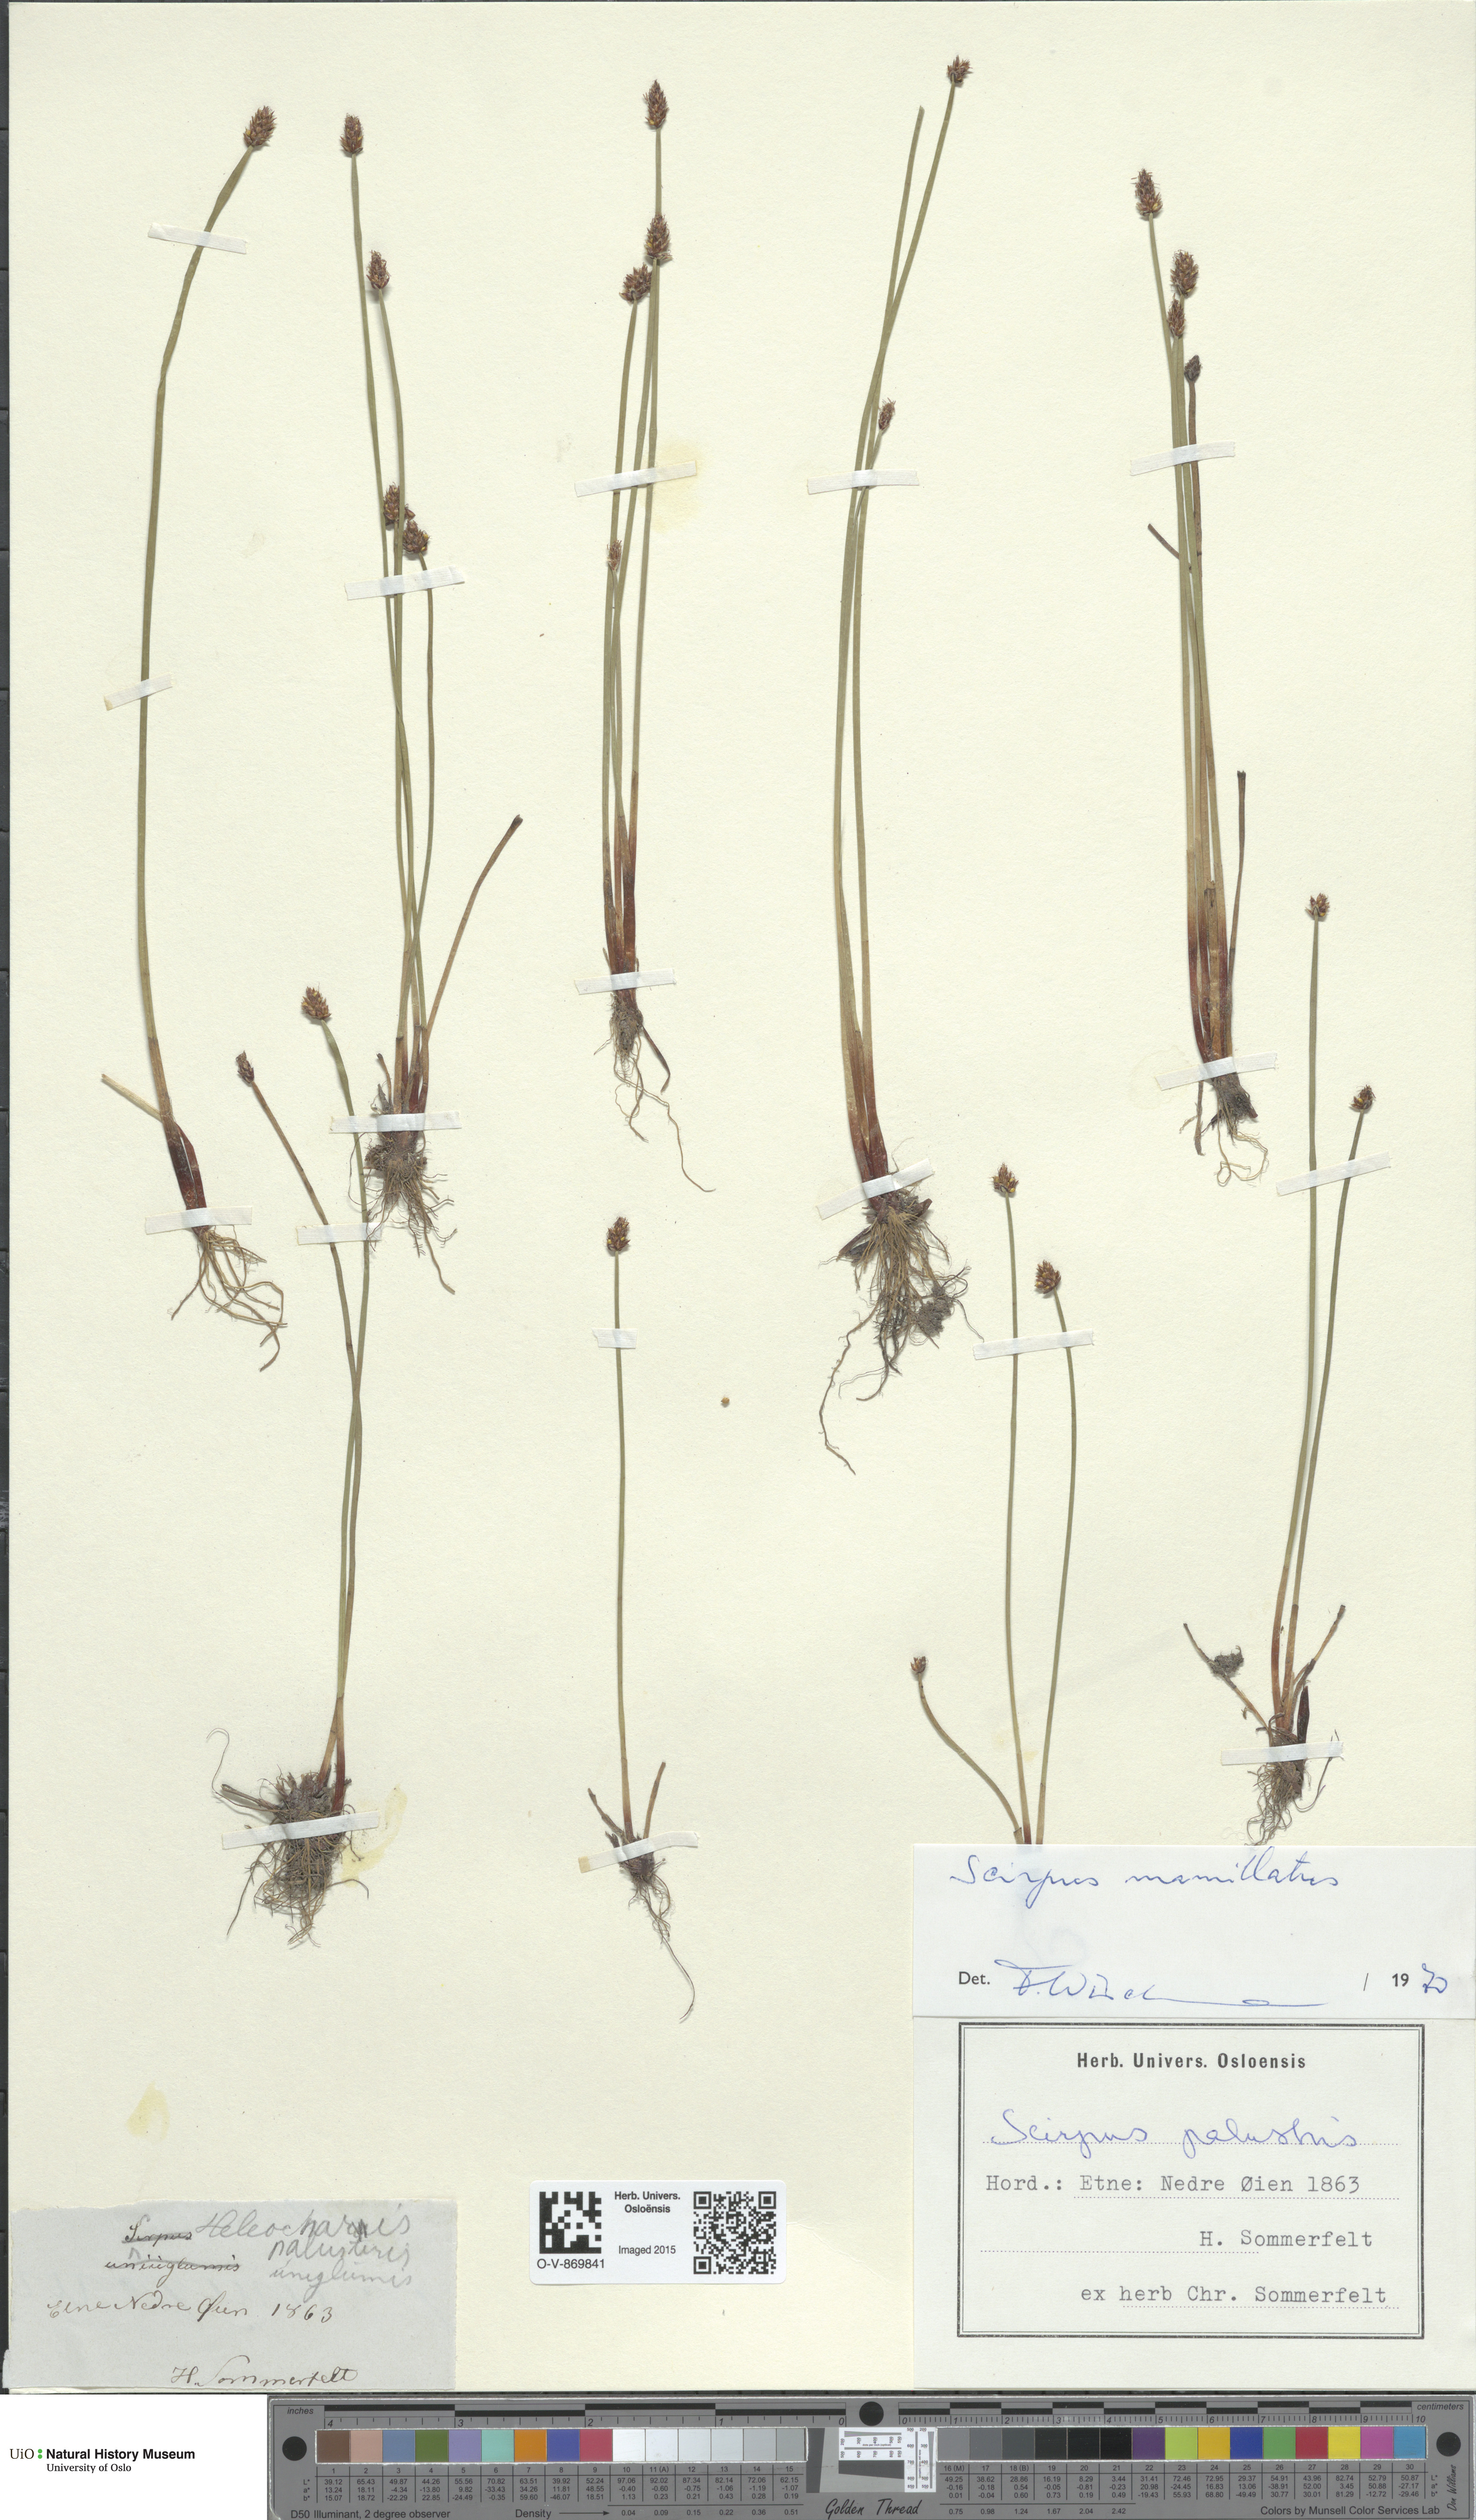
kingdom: Plantae
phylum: Tracheophyta
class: Liliopsida
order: Poales
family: Cyperaceae
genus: Eleocharis
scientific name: Eleocharis mamillata
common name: Northern spike-rush
